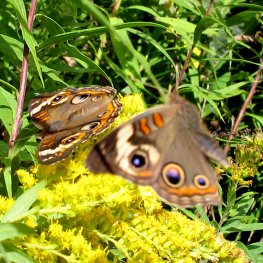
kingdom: Animalia
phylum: Arthropoda
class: Insecta
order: Lepidoptera
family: Nymphalidae
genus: Junonia
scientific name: Junonia coenia
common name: Common Buckeye
